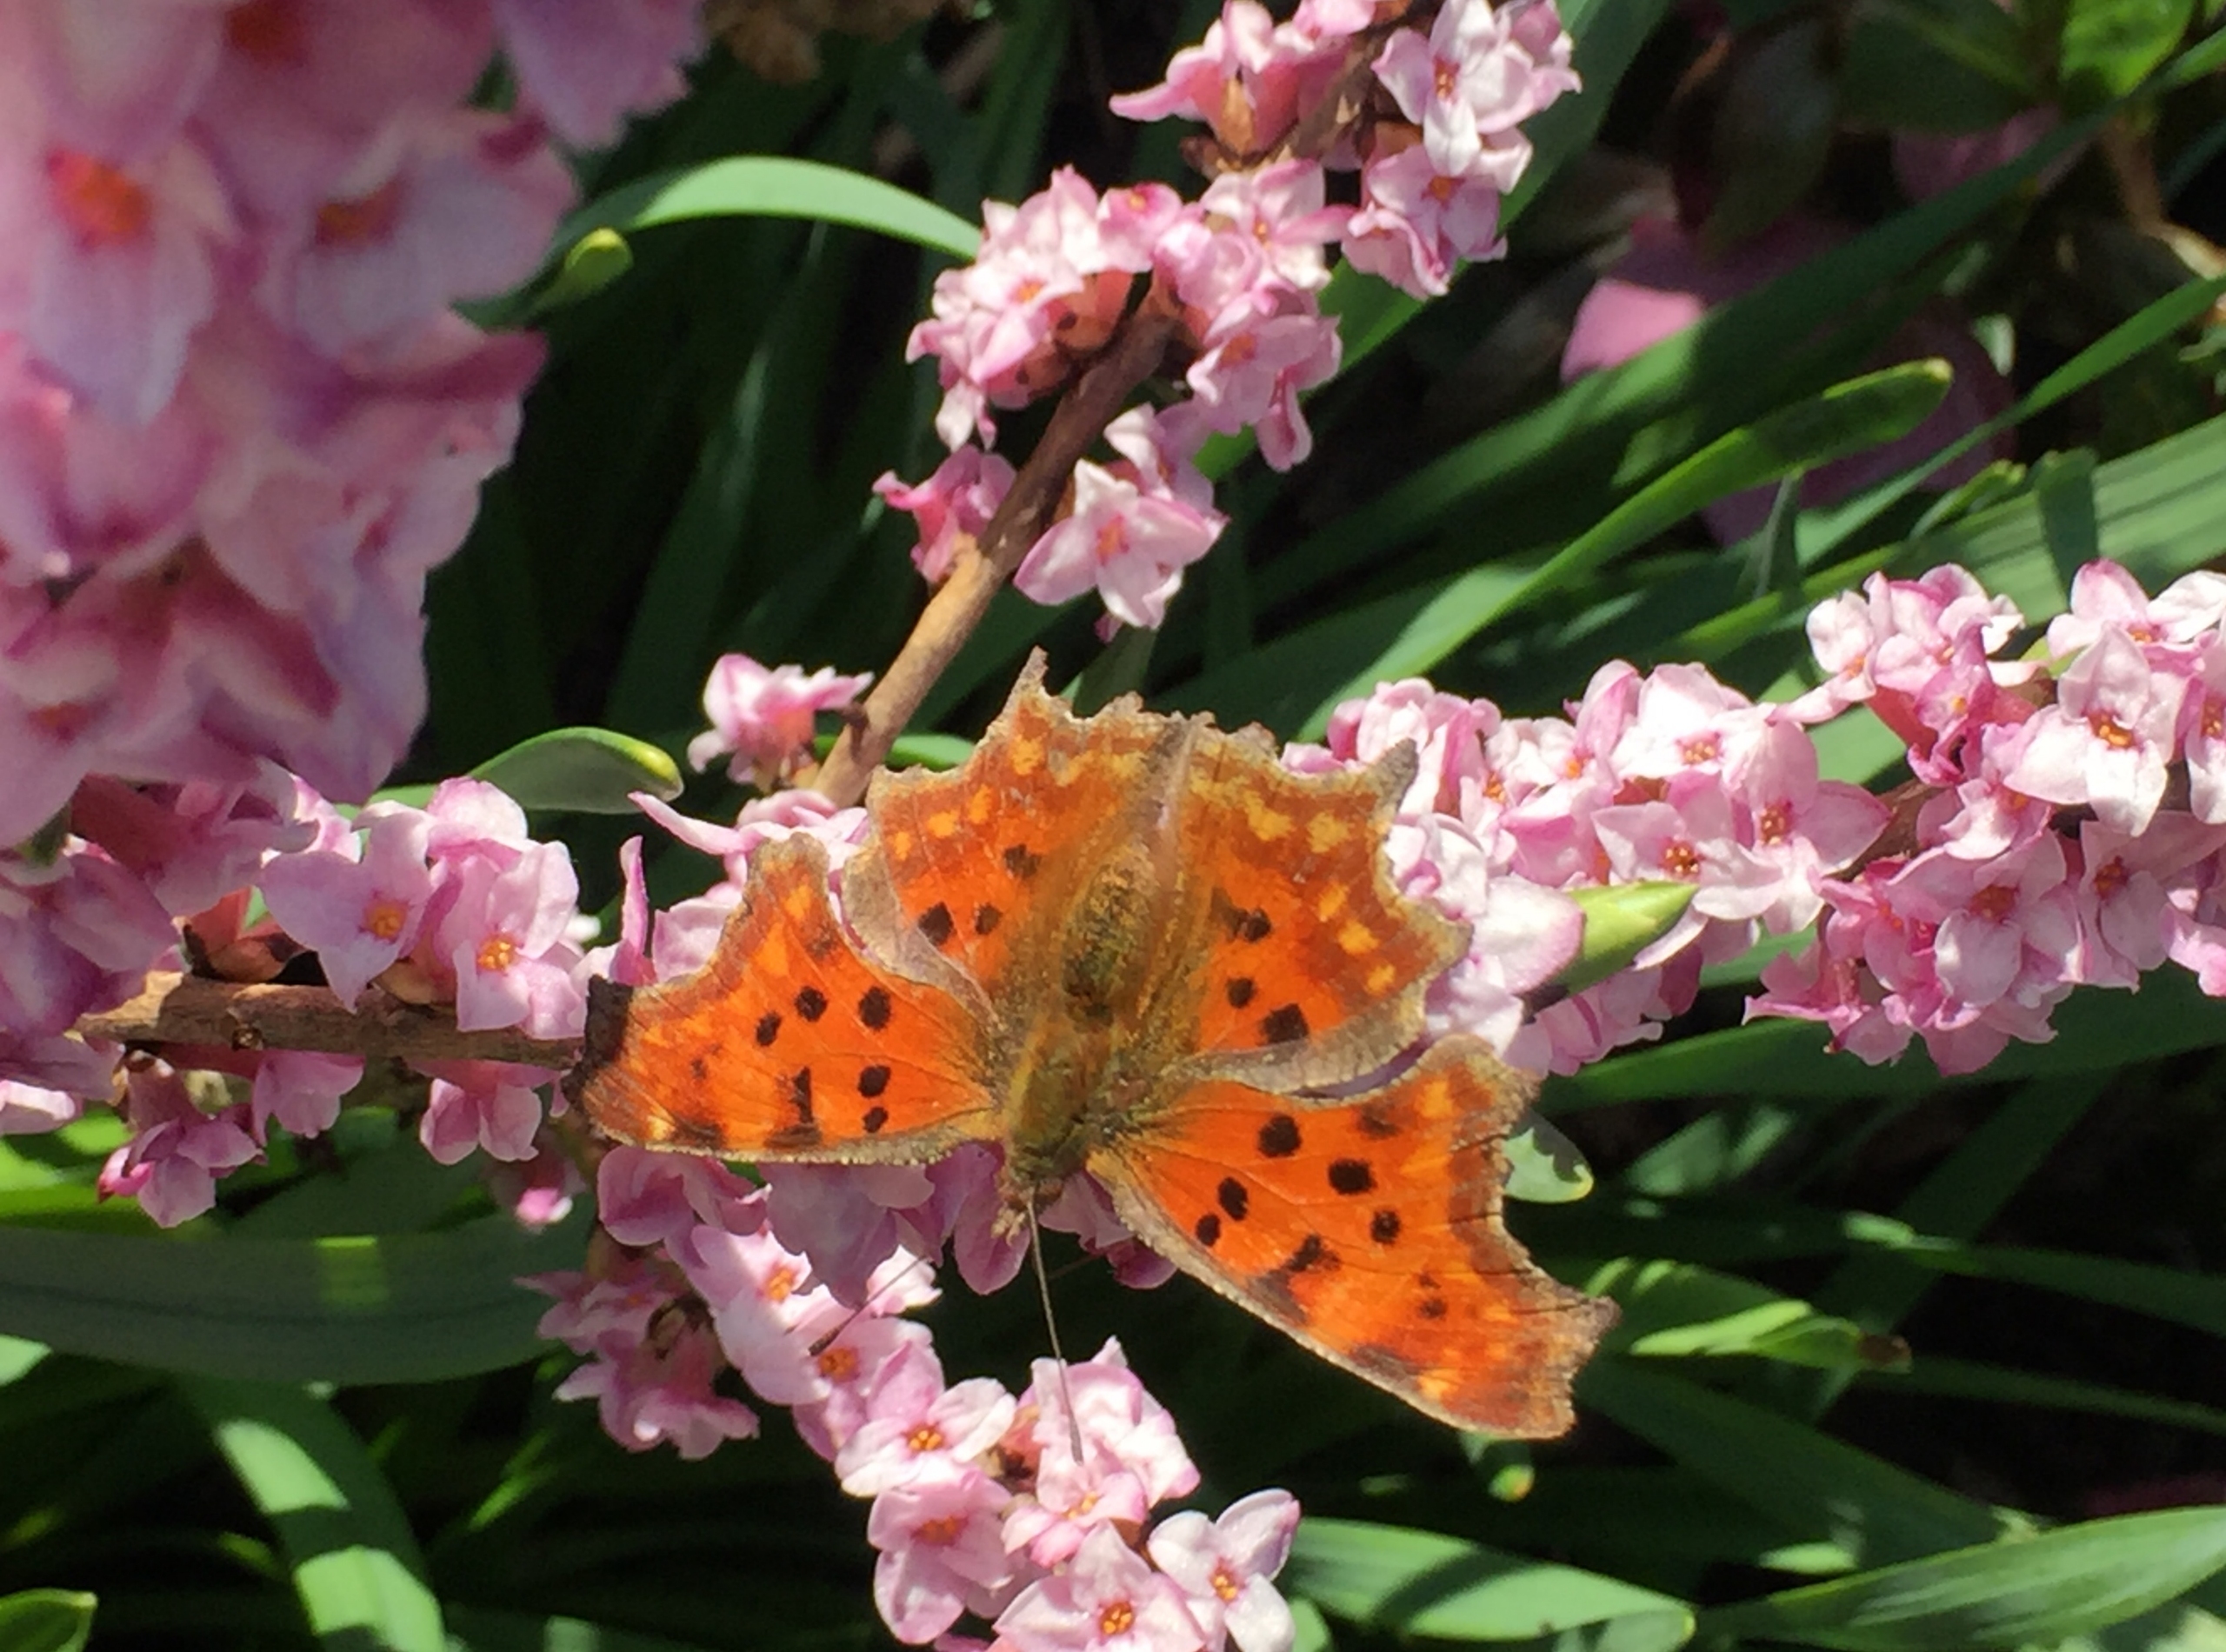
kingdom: Animalia
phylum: Arthropoda
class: Insecta
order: Lepidoptera
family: Nymphalidae
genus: Polygonia
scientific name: Polygonia c-album
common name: Det hvide C
